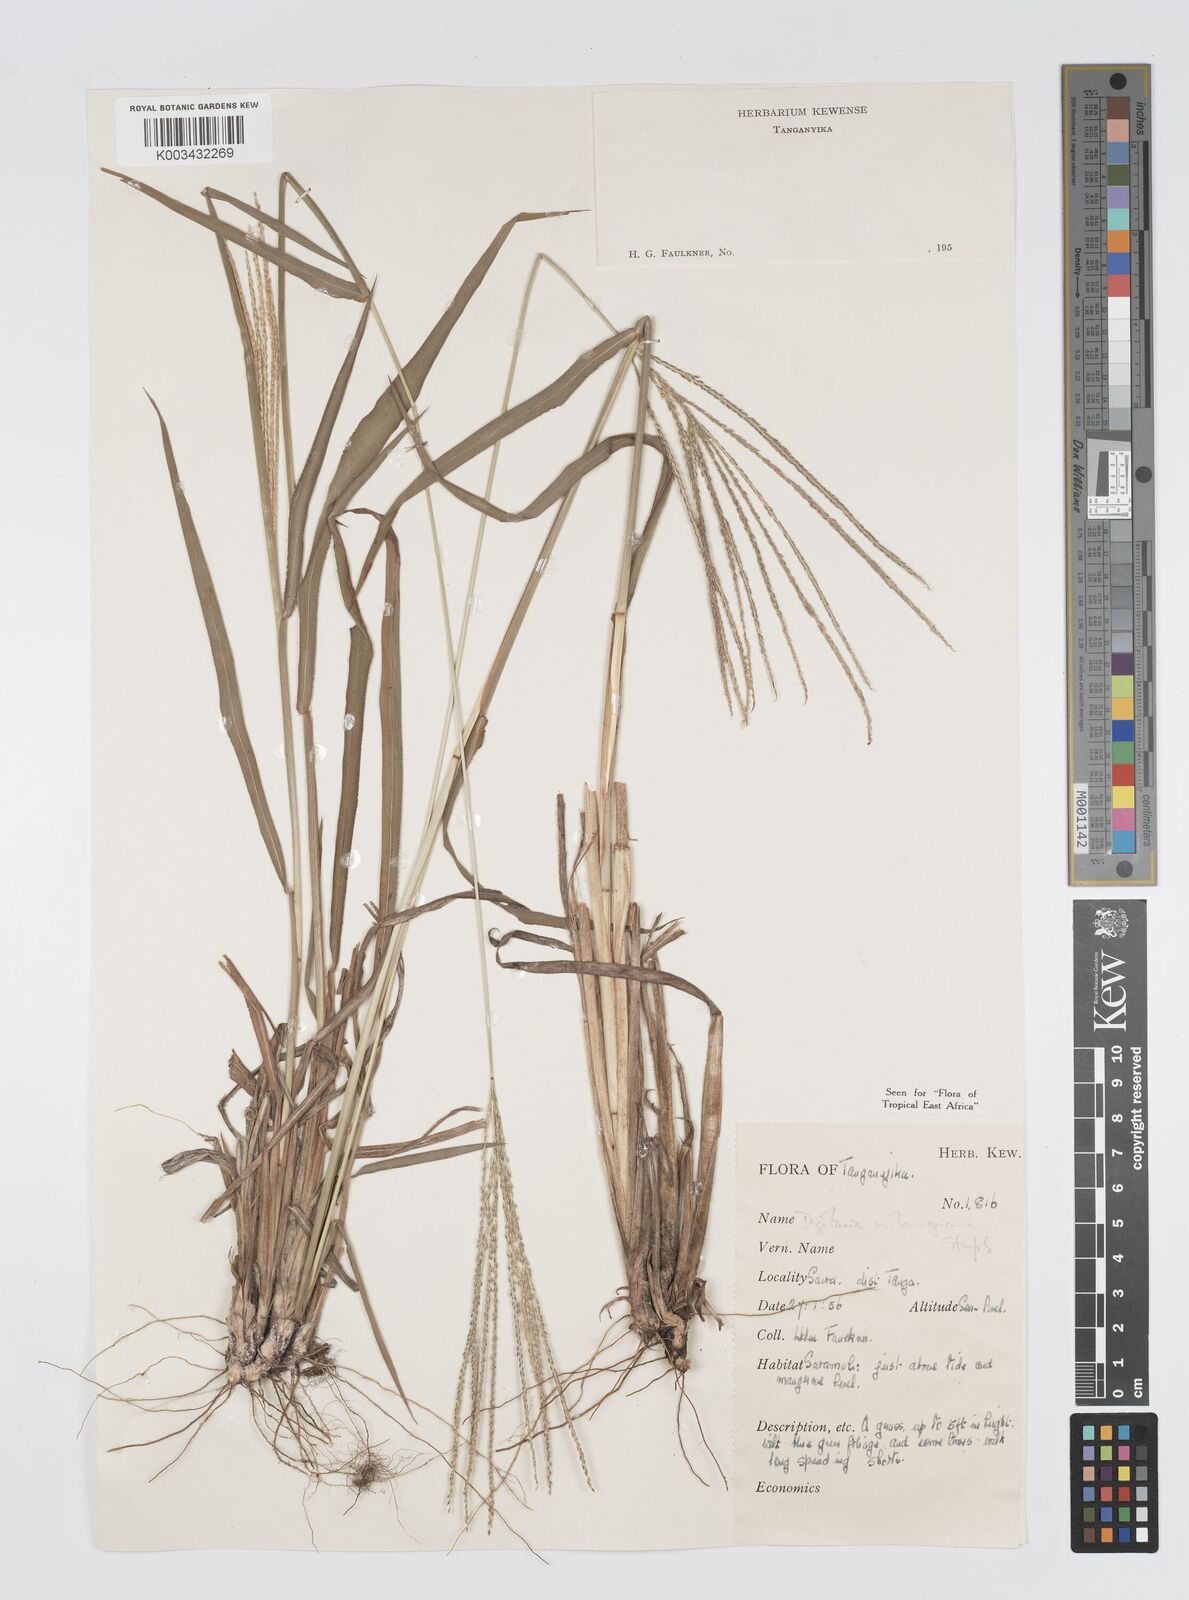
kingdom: Plantae
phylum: Tracheophyta
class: Liliopsida
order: Poales
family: Poaceae
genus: Digitaria
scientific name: Digitaria milanjiana
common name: Madagascar crabgrass
